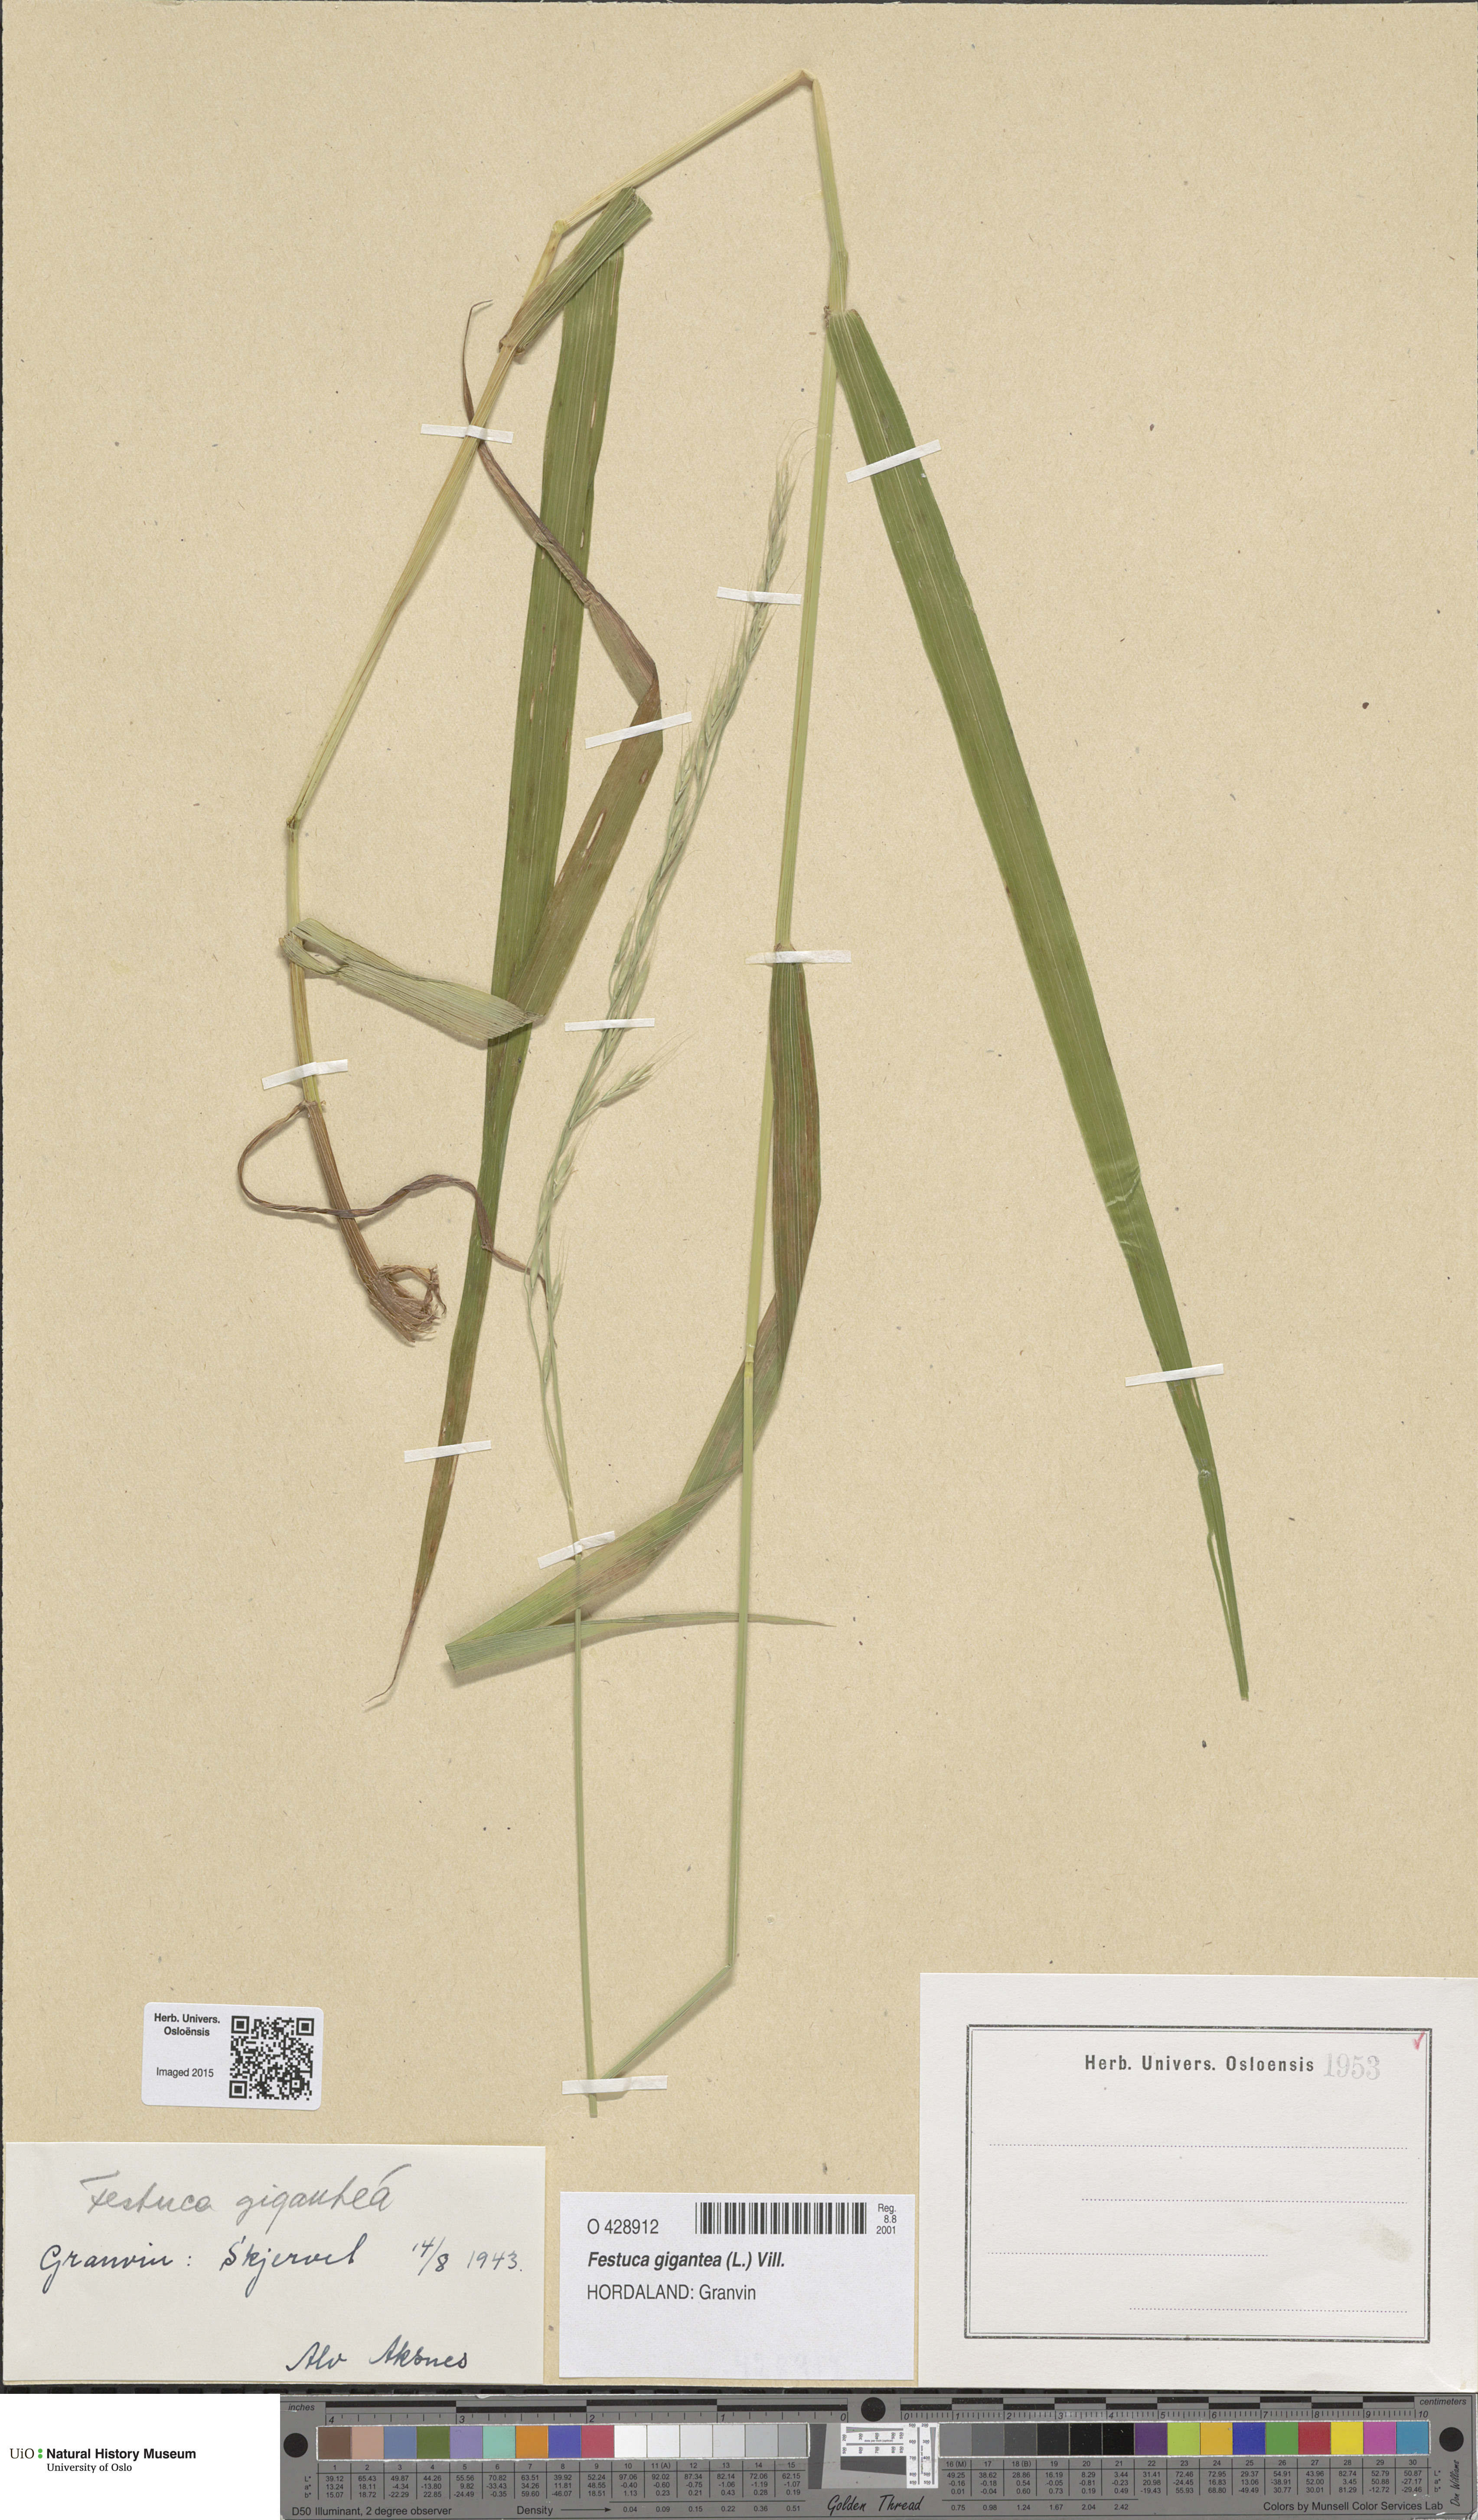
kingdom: Plantae
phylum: Tracheophyta
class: Liliopsida
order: Poales
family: Poaceae
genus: Lolium
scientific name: Lolium giganteum
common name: Giant fescue
